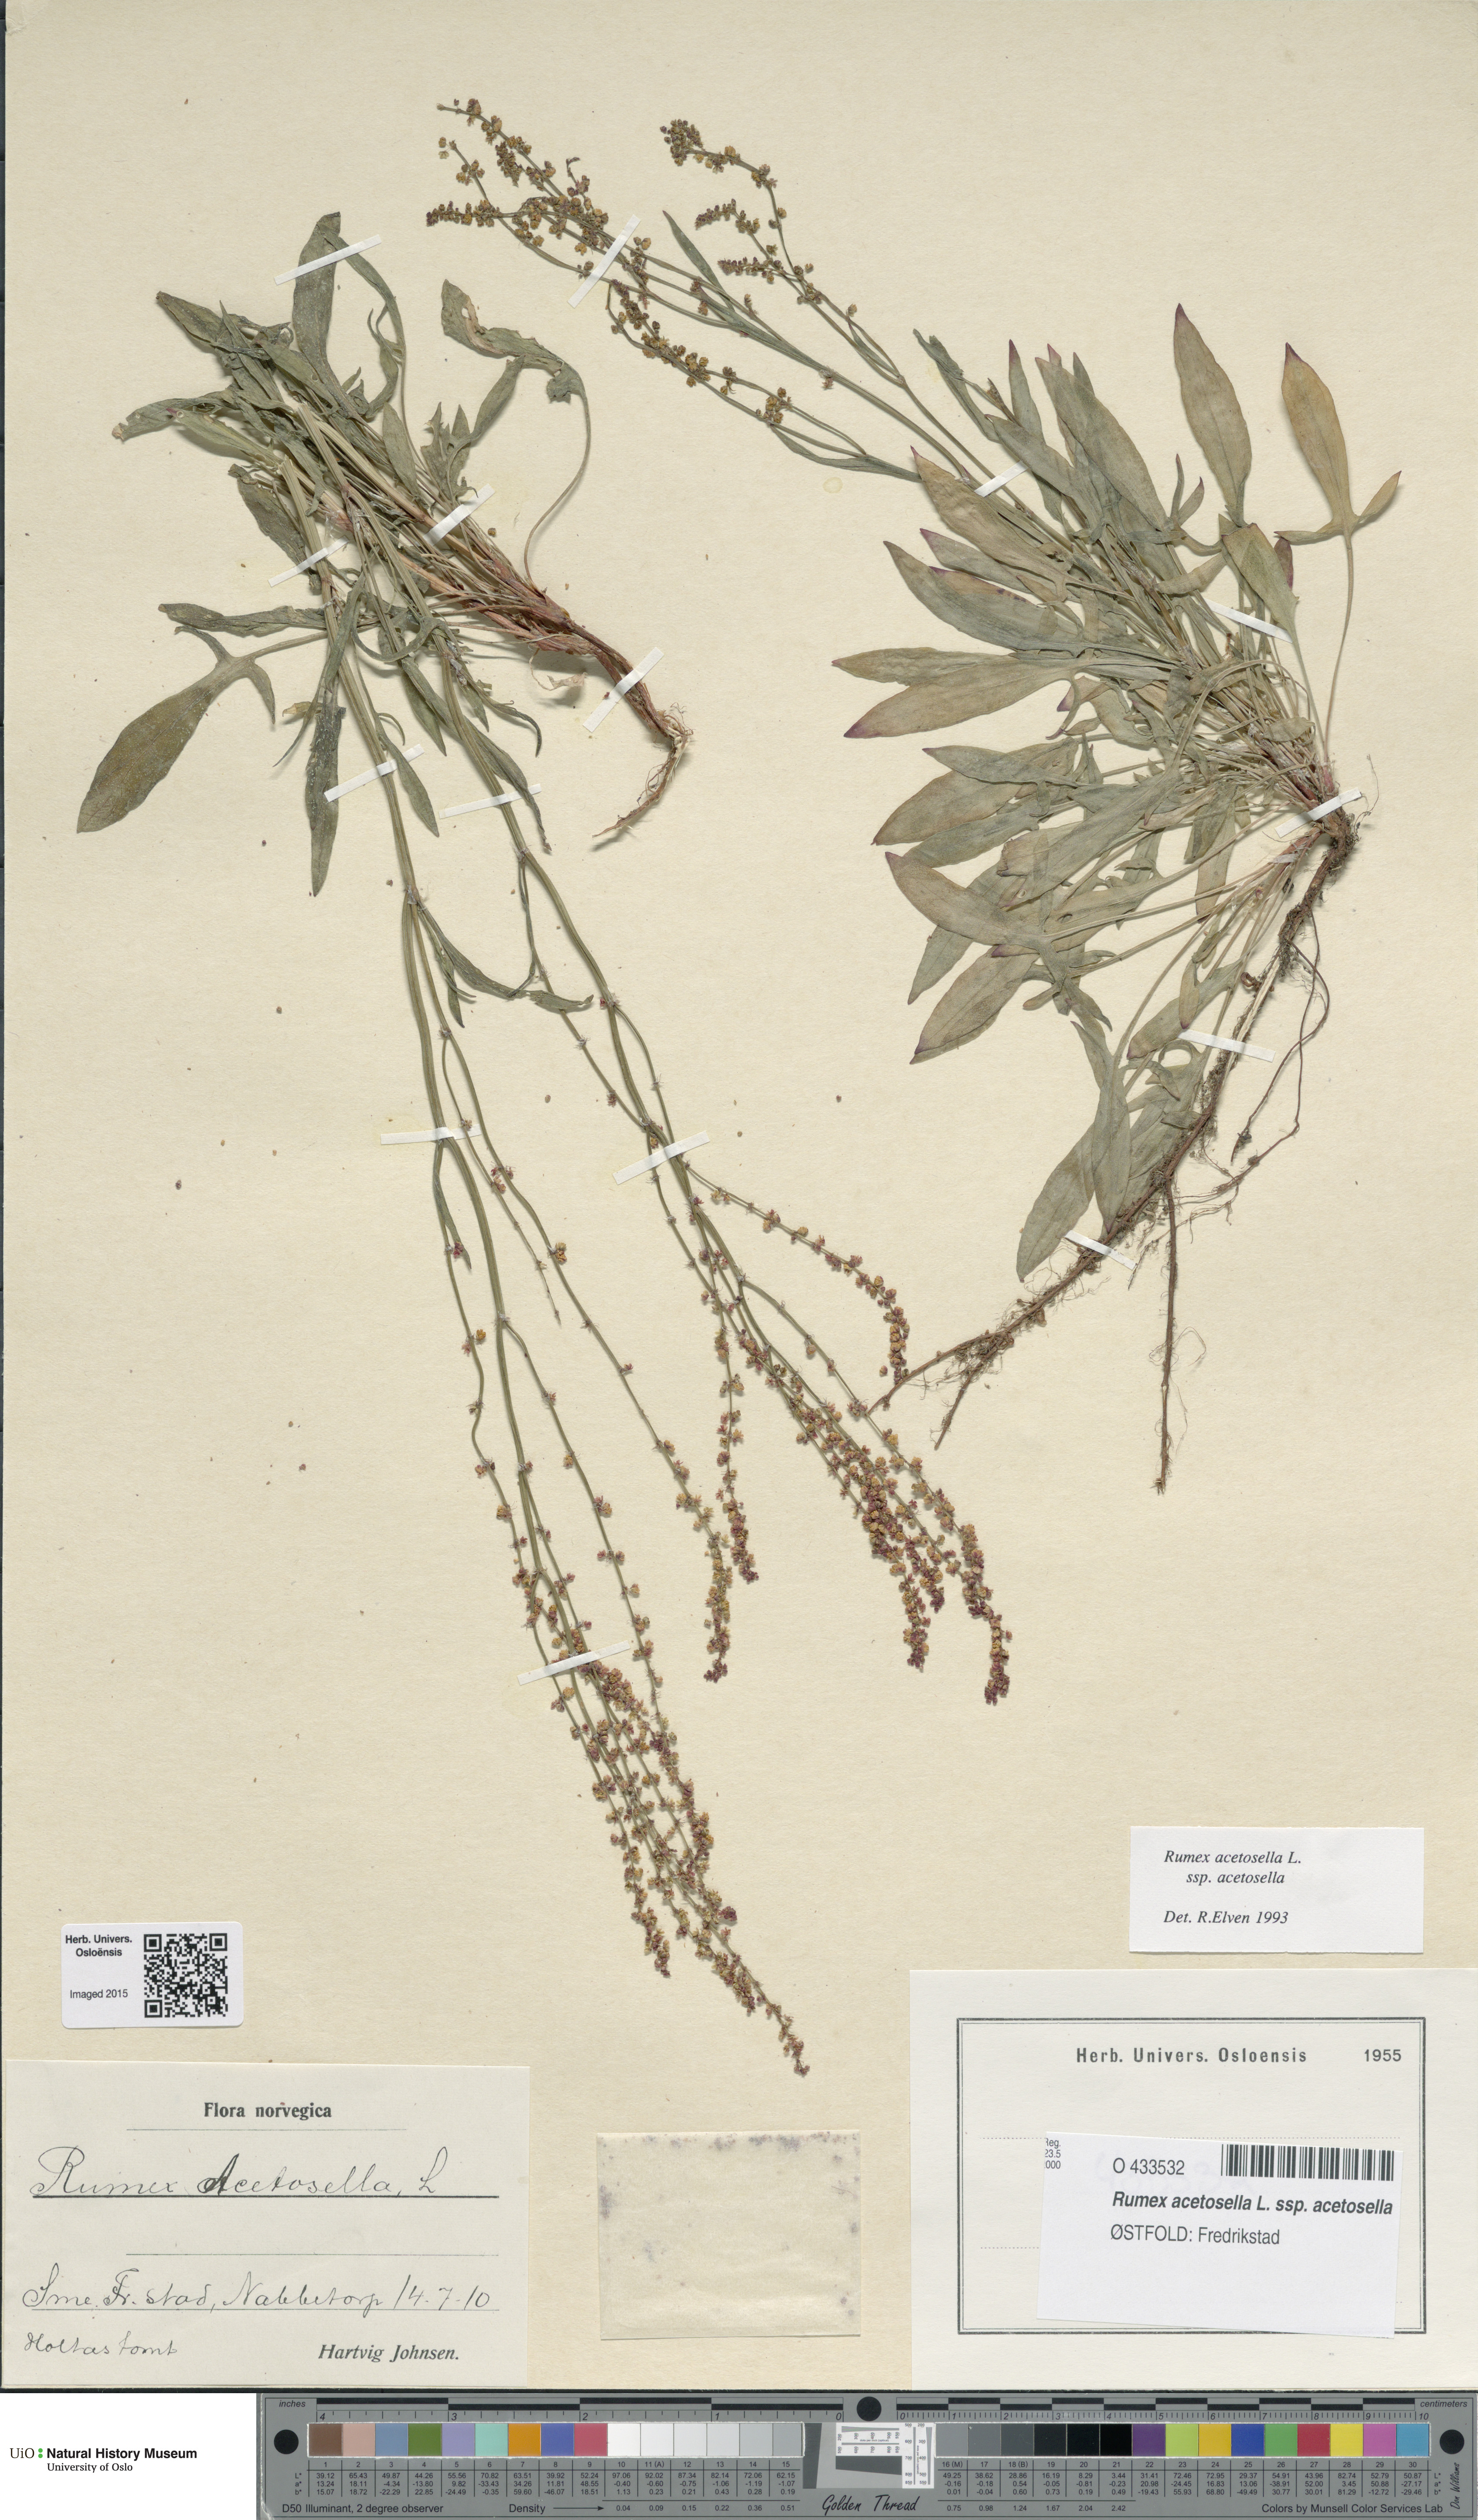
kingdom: Plantae
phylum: Tracheophyta
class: Magnoliopsida
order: Caryophyllales
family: Polygonaceae
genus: Rumex
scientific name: Rumex acetosella
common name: Common sheep sorrel
